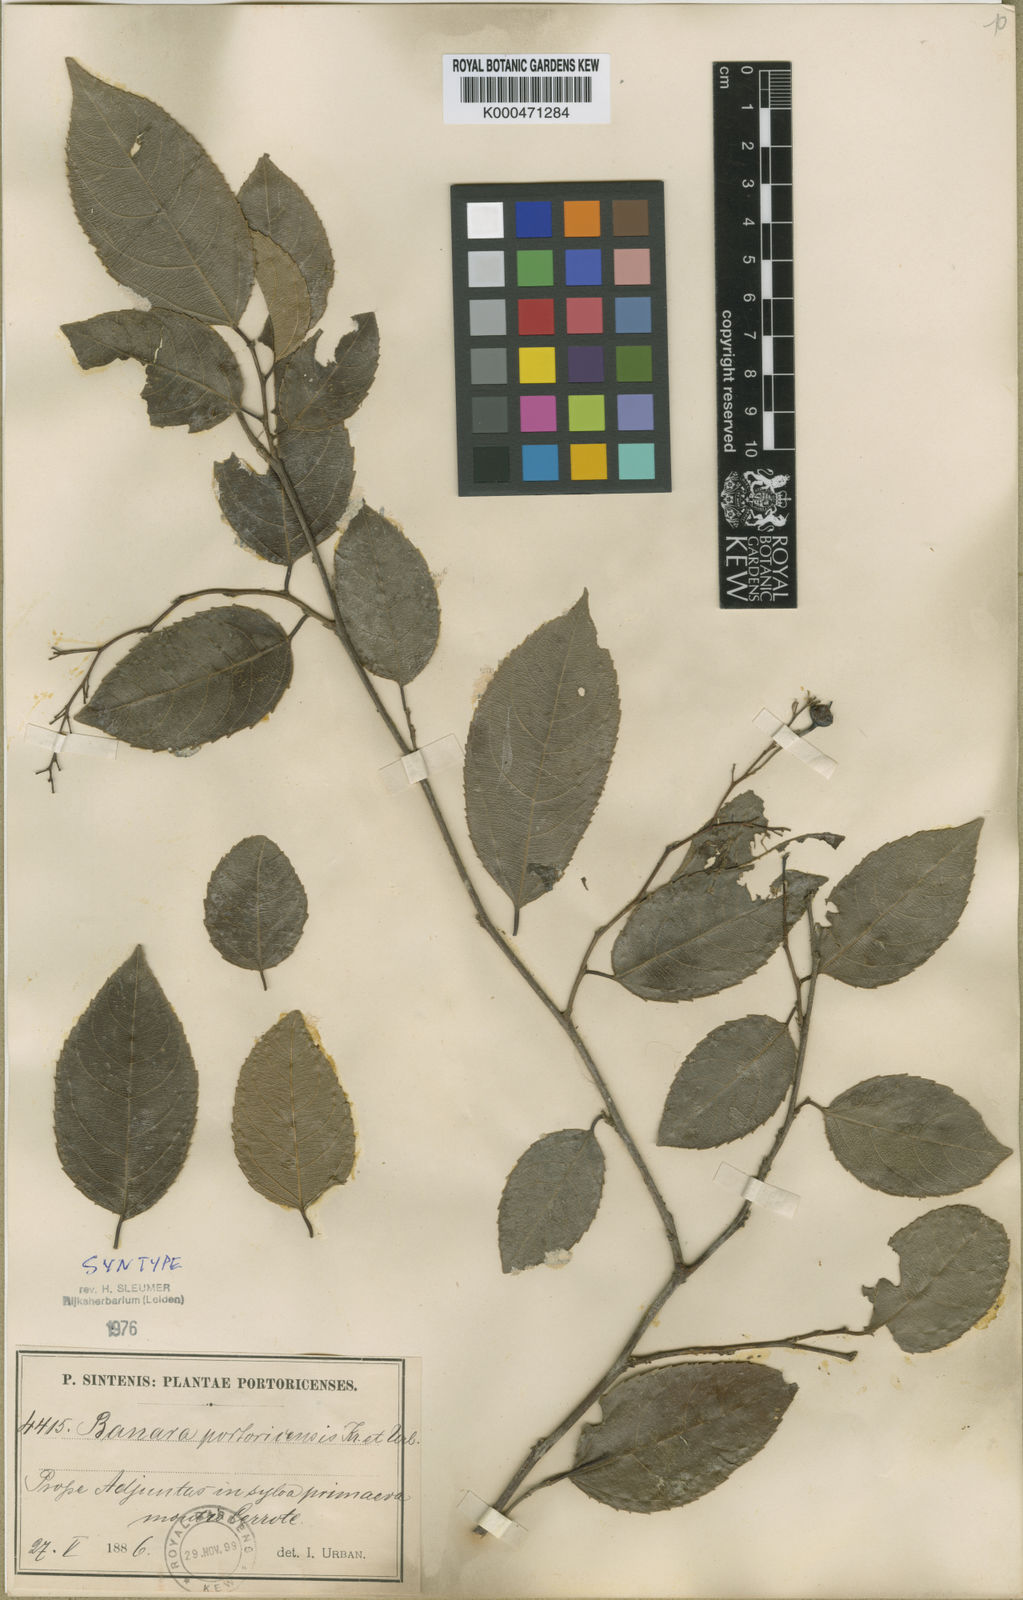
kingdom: Plantae
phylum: Tracheophyta
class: Magnoliopsida
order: Malpighiales
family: Salicaceae
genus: Banara
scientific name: Banara portoricensis
